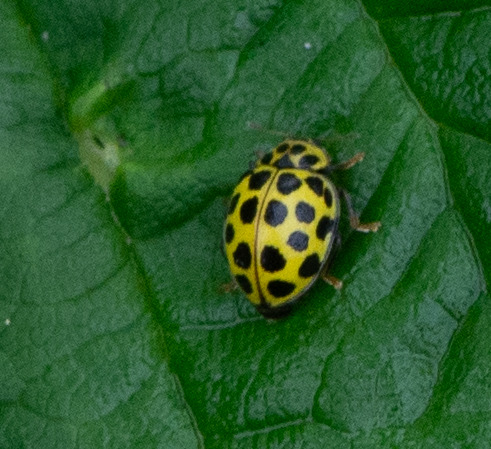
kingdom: Animalia
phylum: Arthropoda
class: Insecta
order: Coleoptera
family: Coccinellidae
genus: Psyllobora
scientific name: Psyllobora vigintiduopunctata
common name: Toogtyveplettet mariehøne
